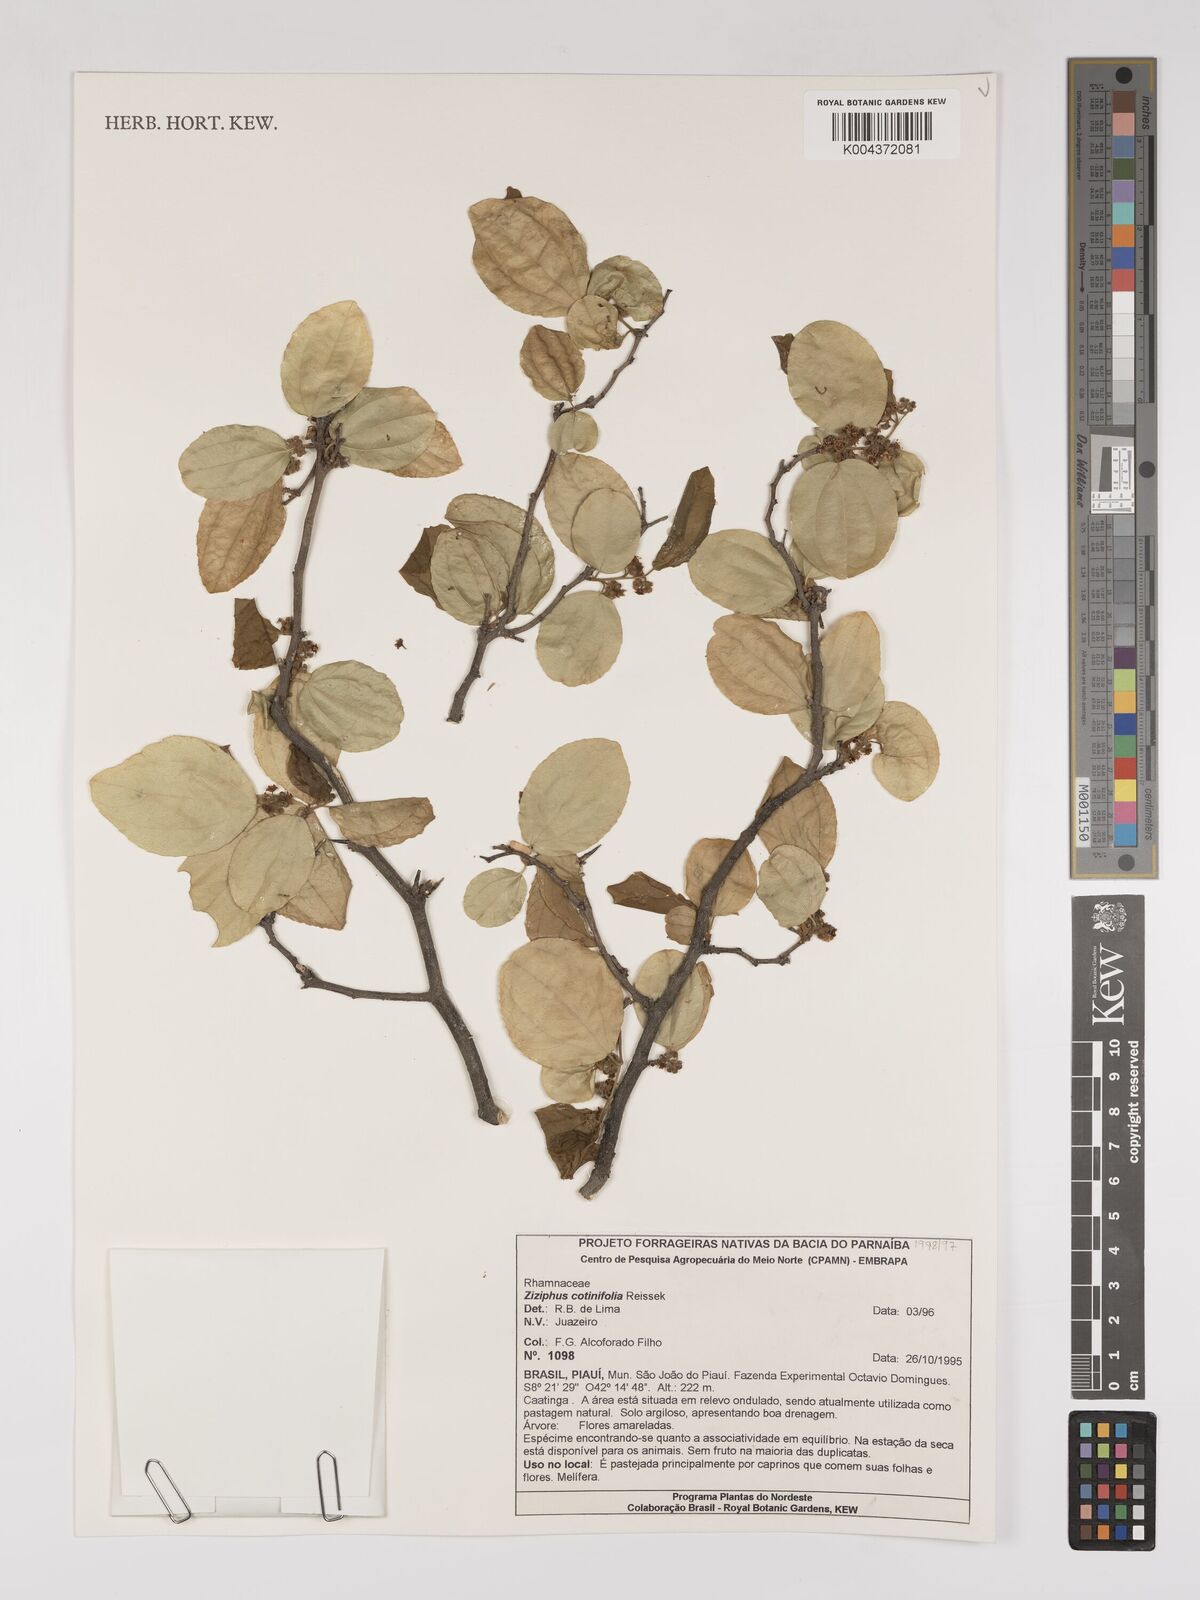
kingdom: Plantae
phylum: Tracheophyta
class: Magnoliopsida
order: Rosales
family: Rhamnaceae
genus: Sarcomphalus
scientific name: Sarcomphalus cotinifolius
